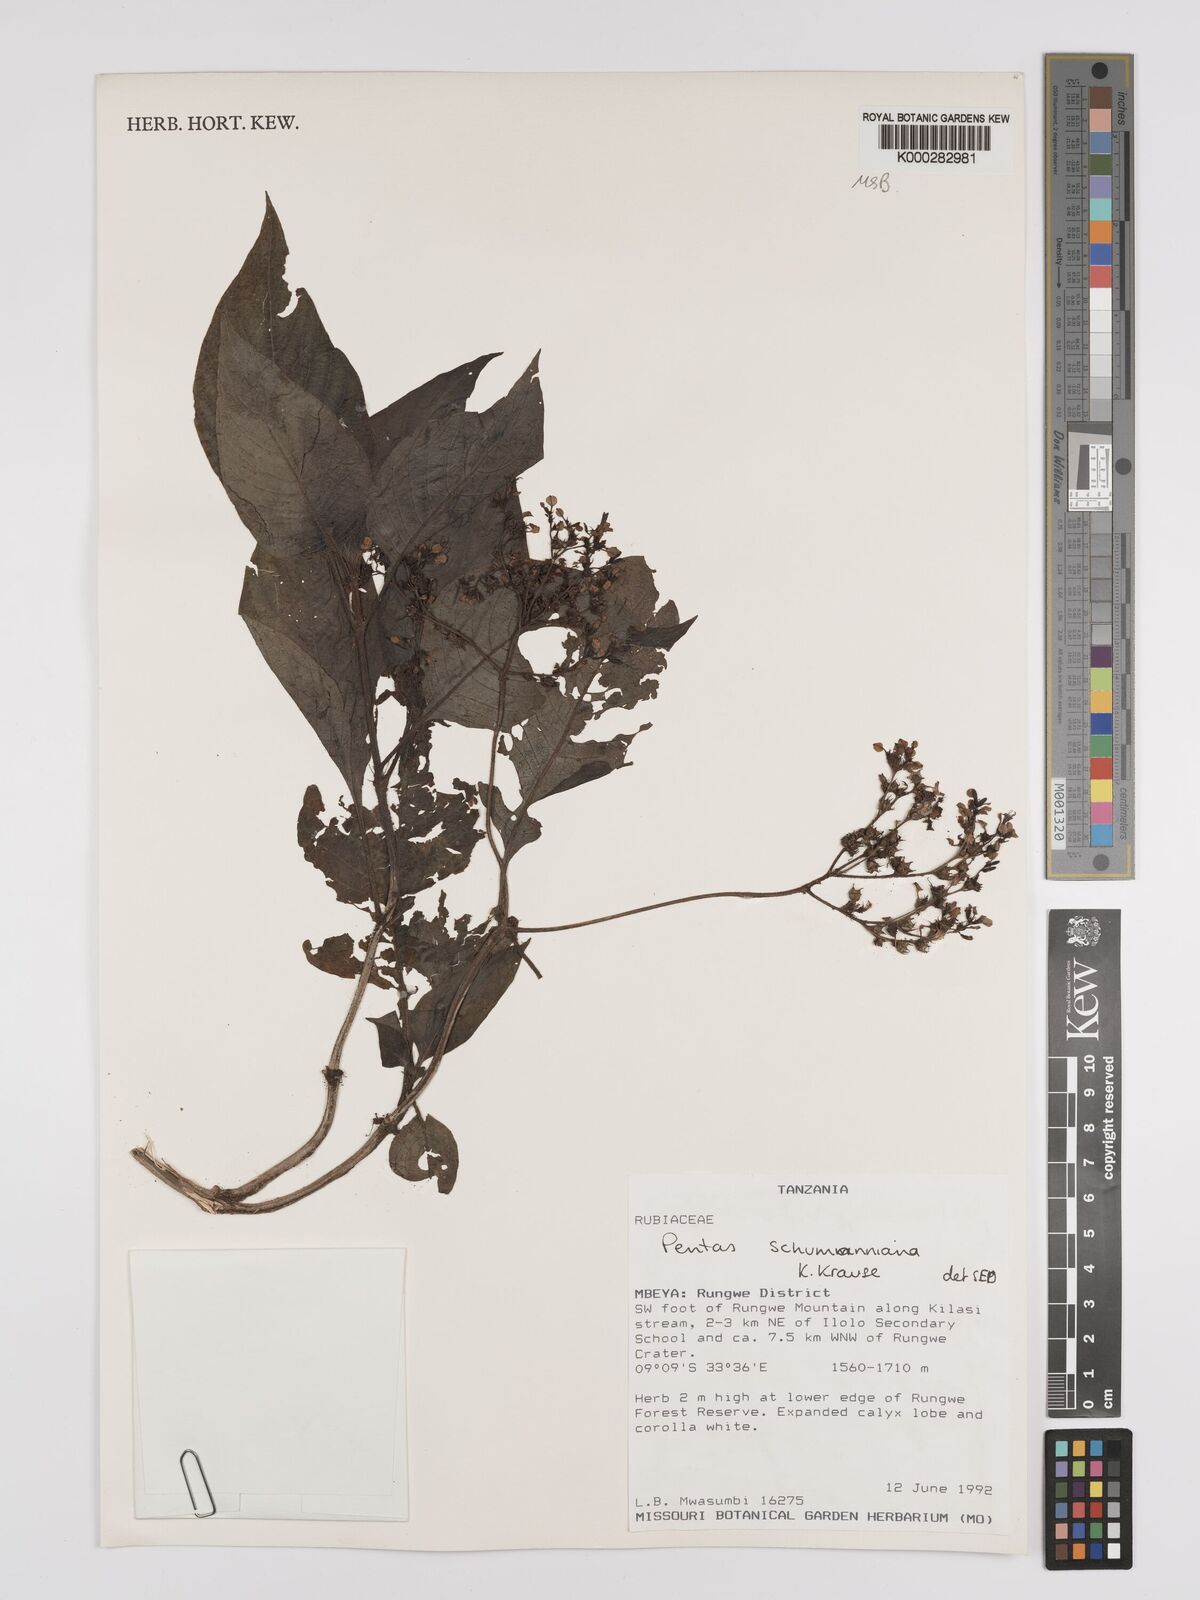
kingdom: Plantae
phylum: Tracheophyta
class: Magnoliopsida
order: Gentianales
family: Rubiaceae
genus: Phyllopentas
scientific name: Phyllopentas schumanniana
